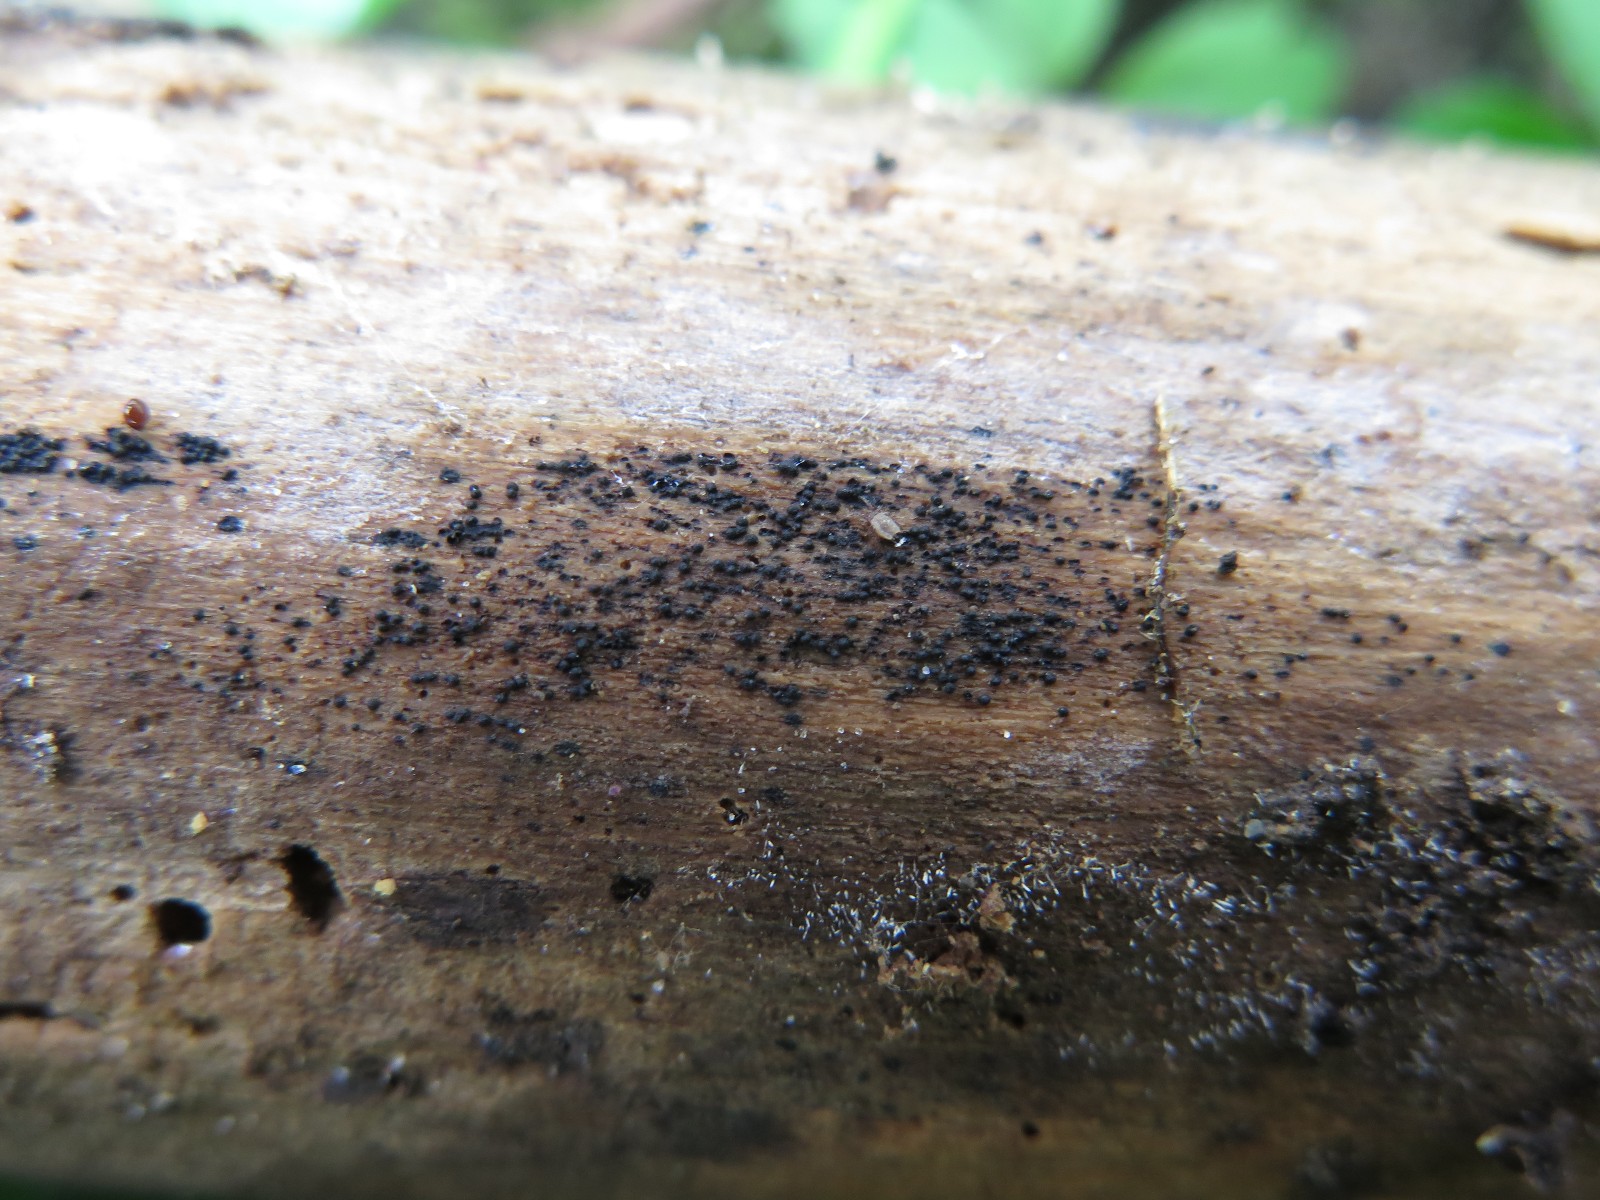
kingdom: Fungi
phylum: Ascomycota
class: Sordariomycetes
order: Chaetosphaeriales
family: Chaetosphaeriaceae
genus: Chaetosphaeria
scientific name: Chaetosphaeria
